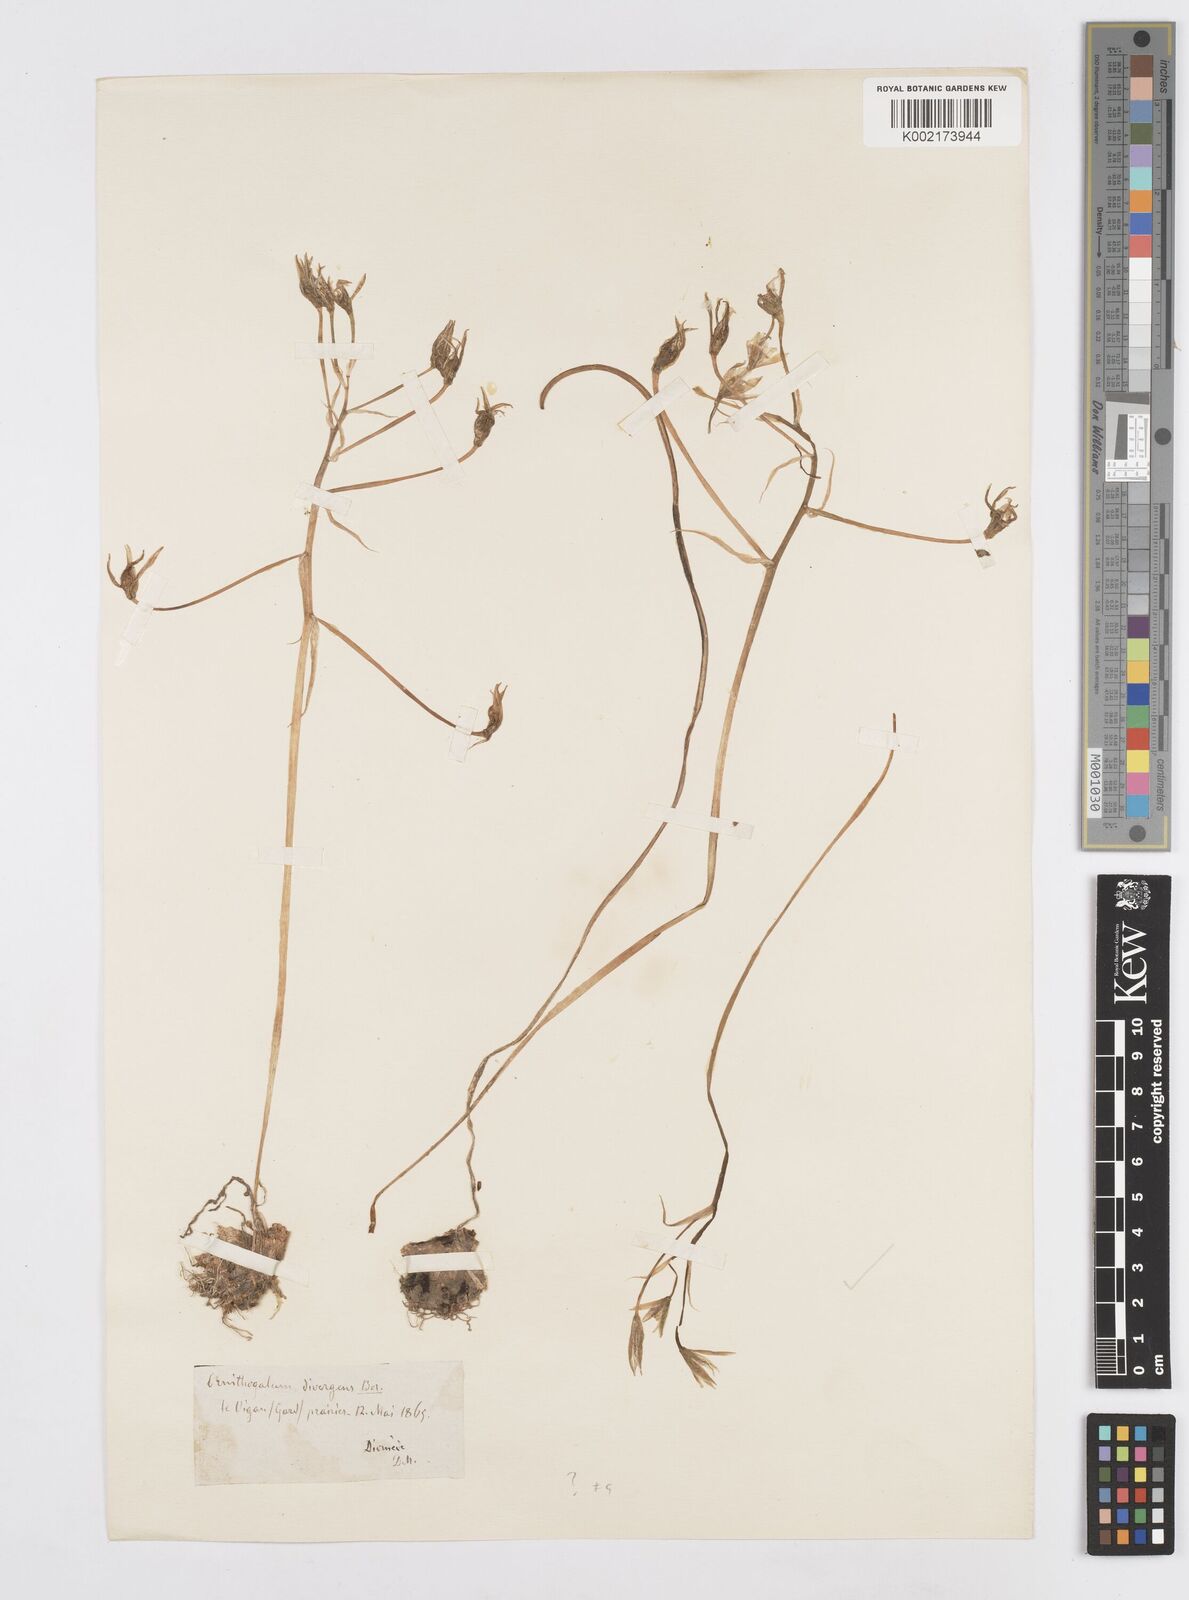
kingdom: Plantae
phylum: Tracheophyta
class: Liliopsida
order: Asparagales
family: Asparagaceae
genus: Ornithogalum
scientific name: Ornithogalum divergens
